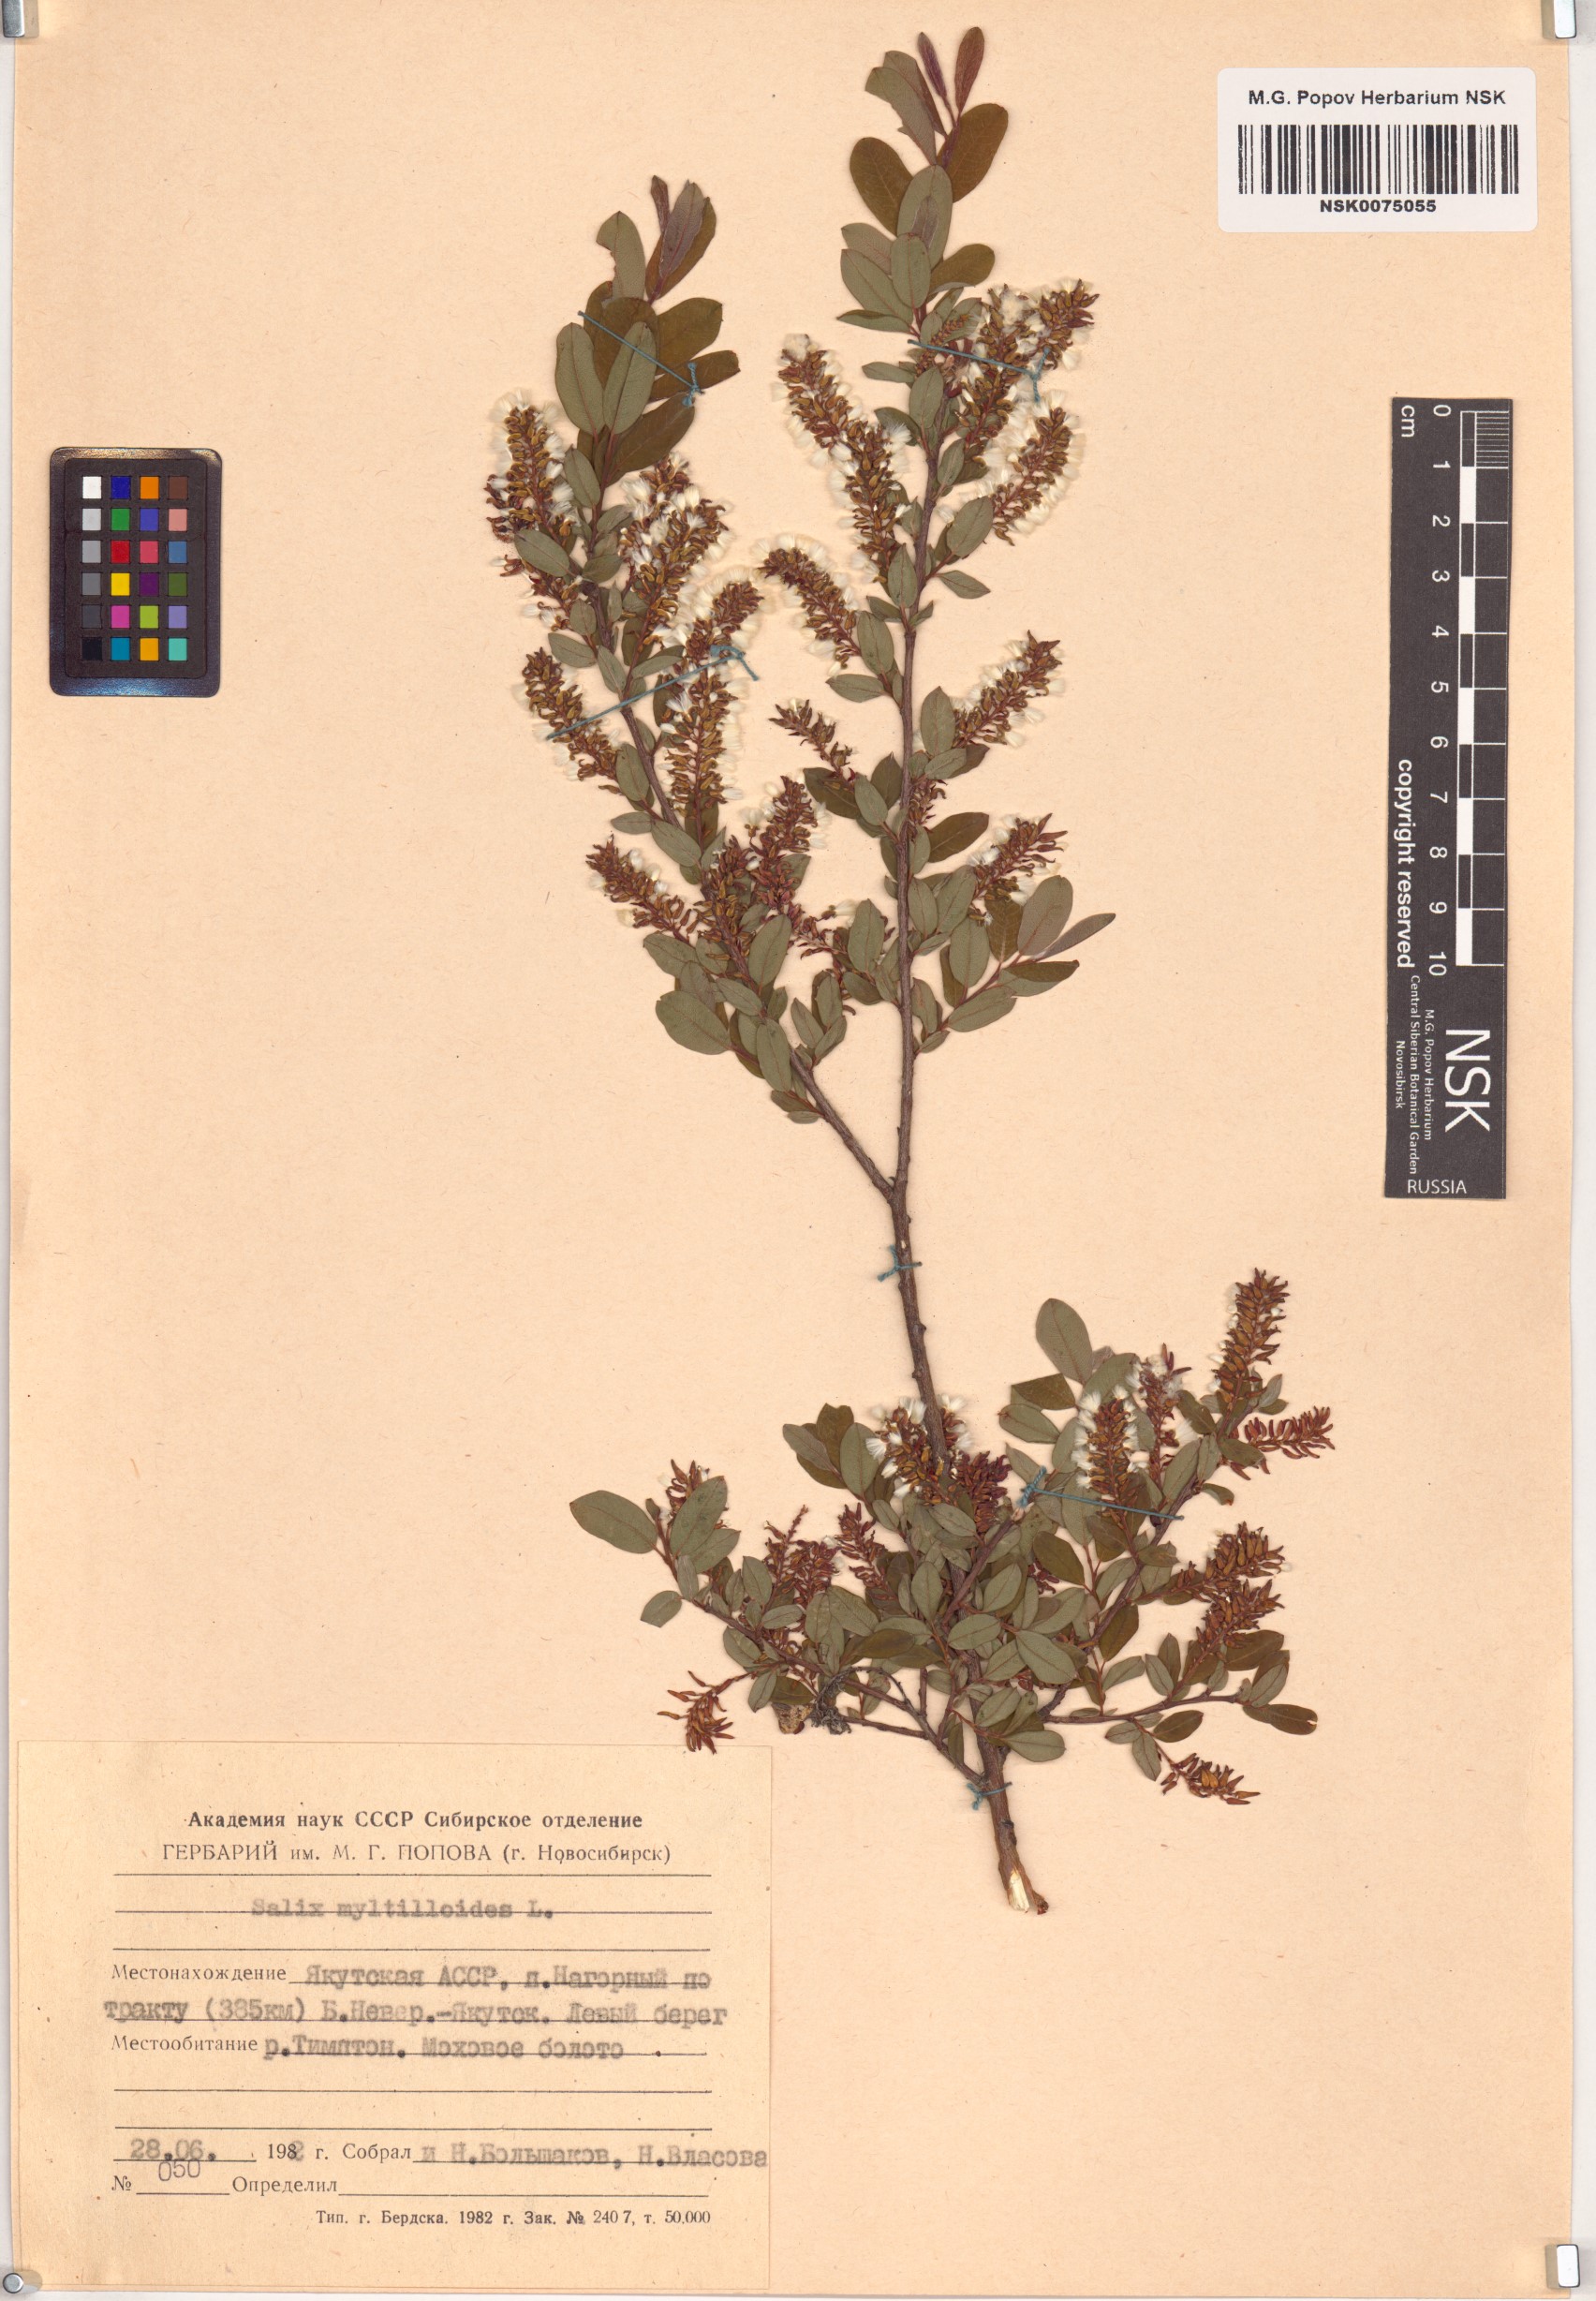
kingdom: Plantae
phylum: Tracheophyta
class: Magnoliopsida
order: Malpighiales
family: Salicaceae
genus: Salix
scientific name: Salix myrtilloides
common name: Myrtle-leaved willow
